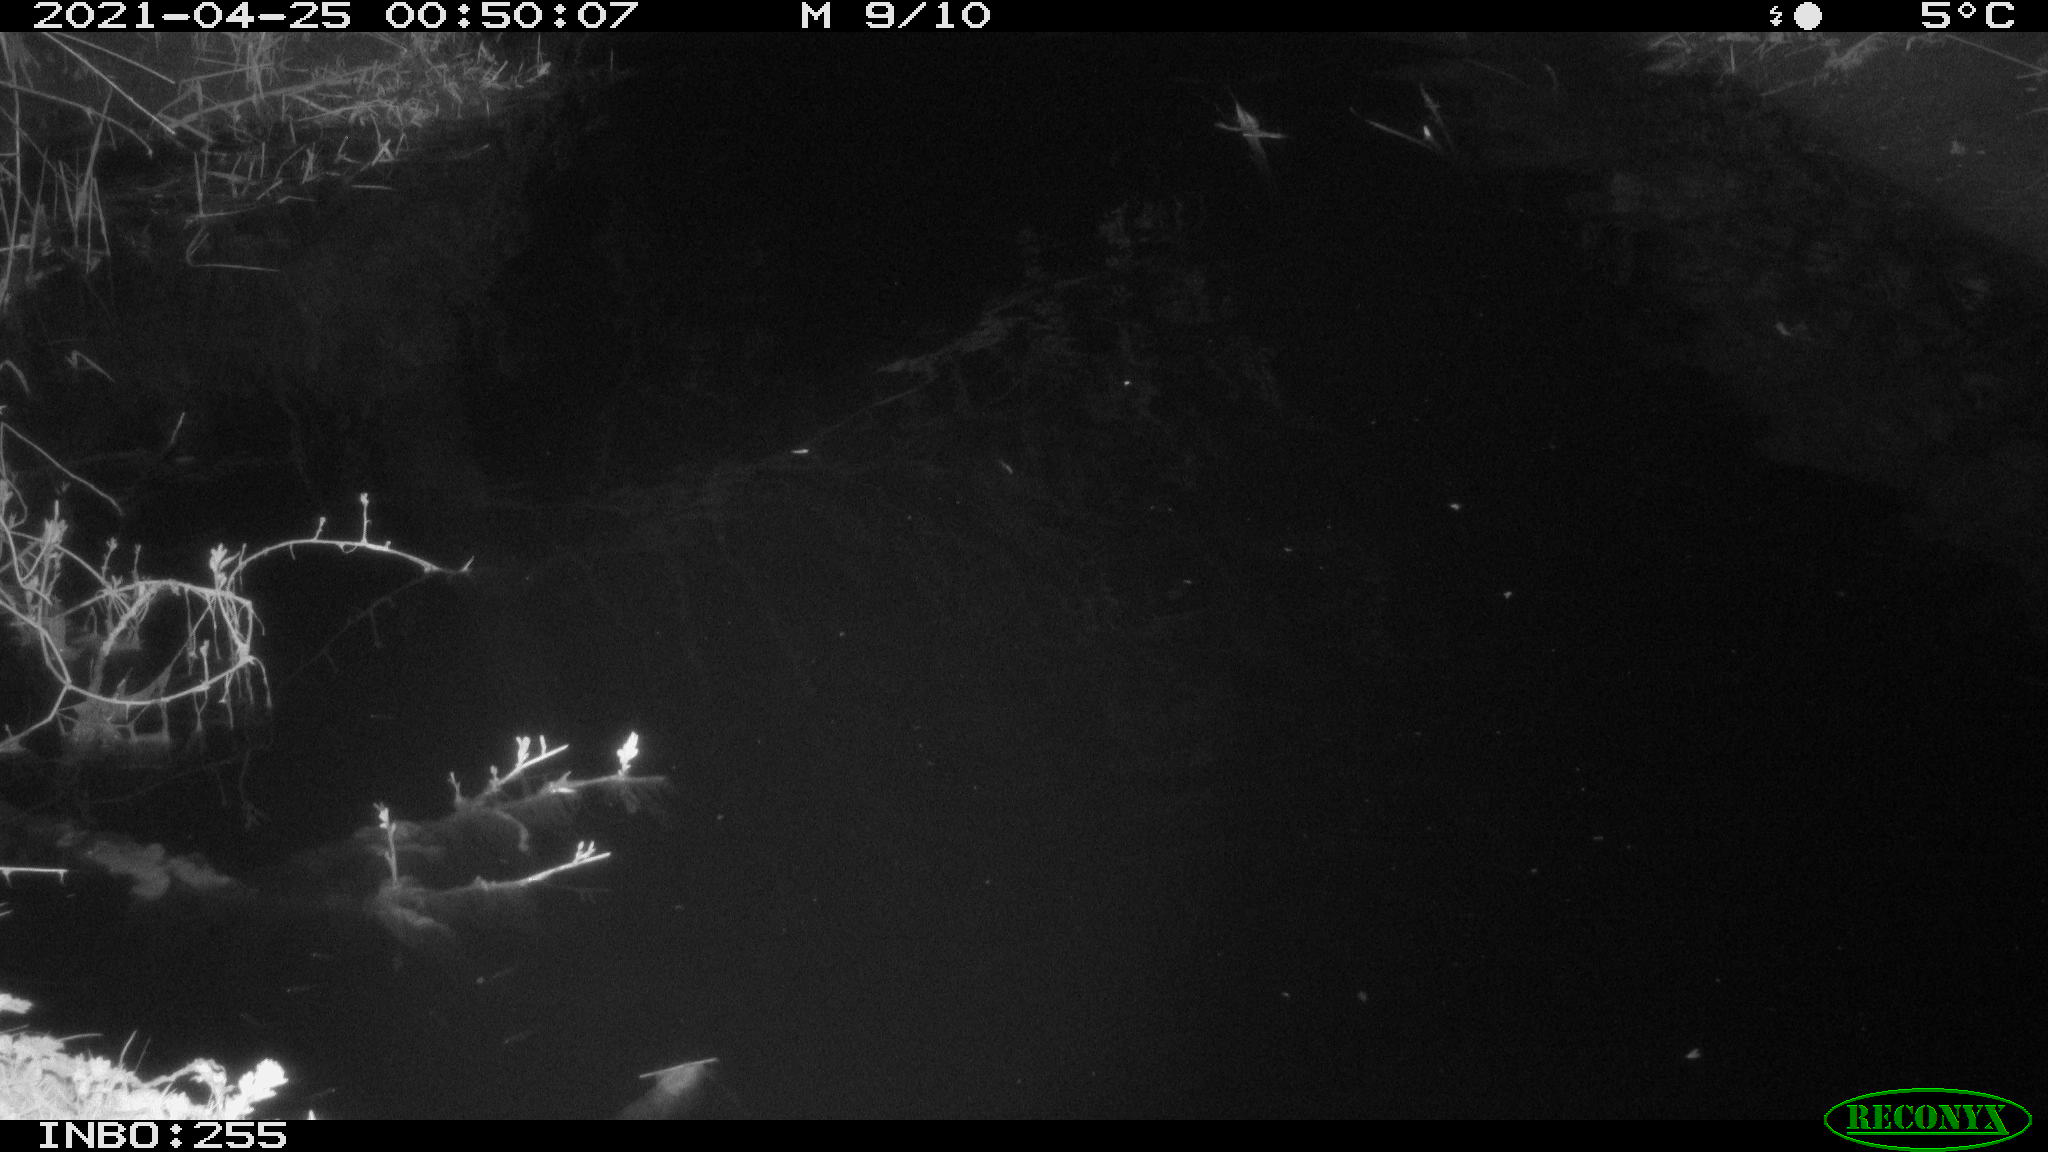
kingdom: Animalia
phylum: Chordata
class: Aves
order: Anseriformes
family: Anatidae
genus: Anas
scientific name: Anas platyrhynchos
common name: Mallard
